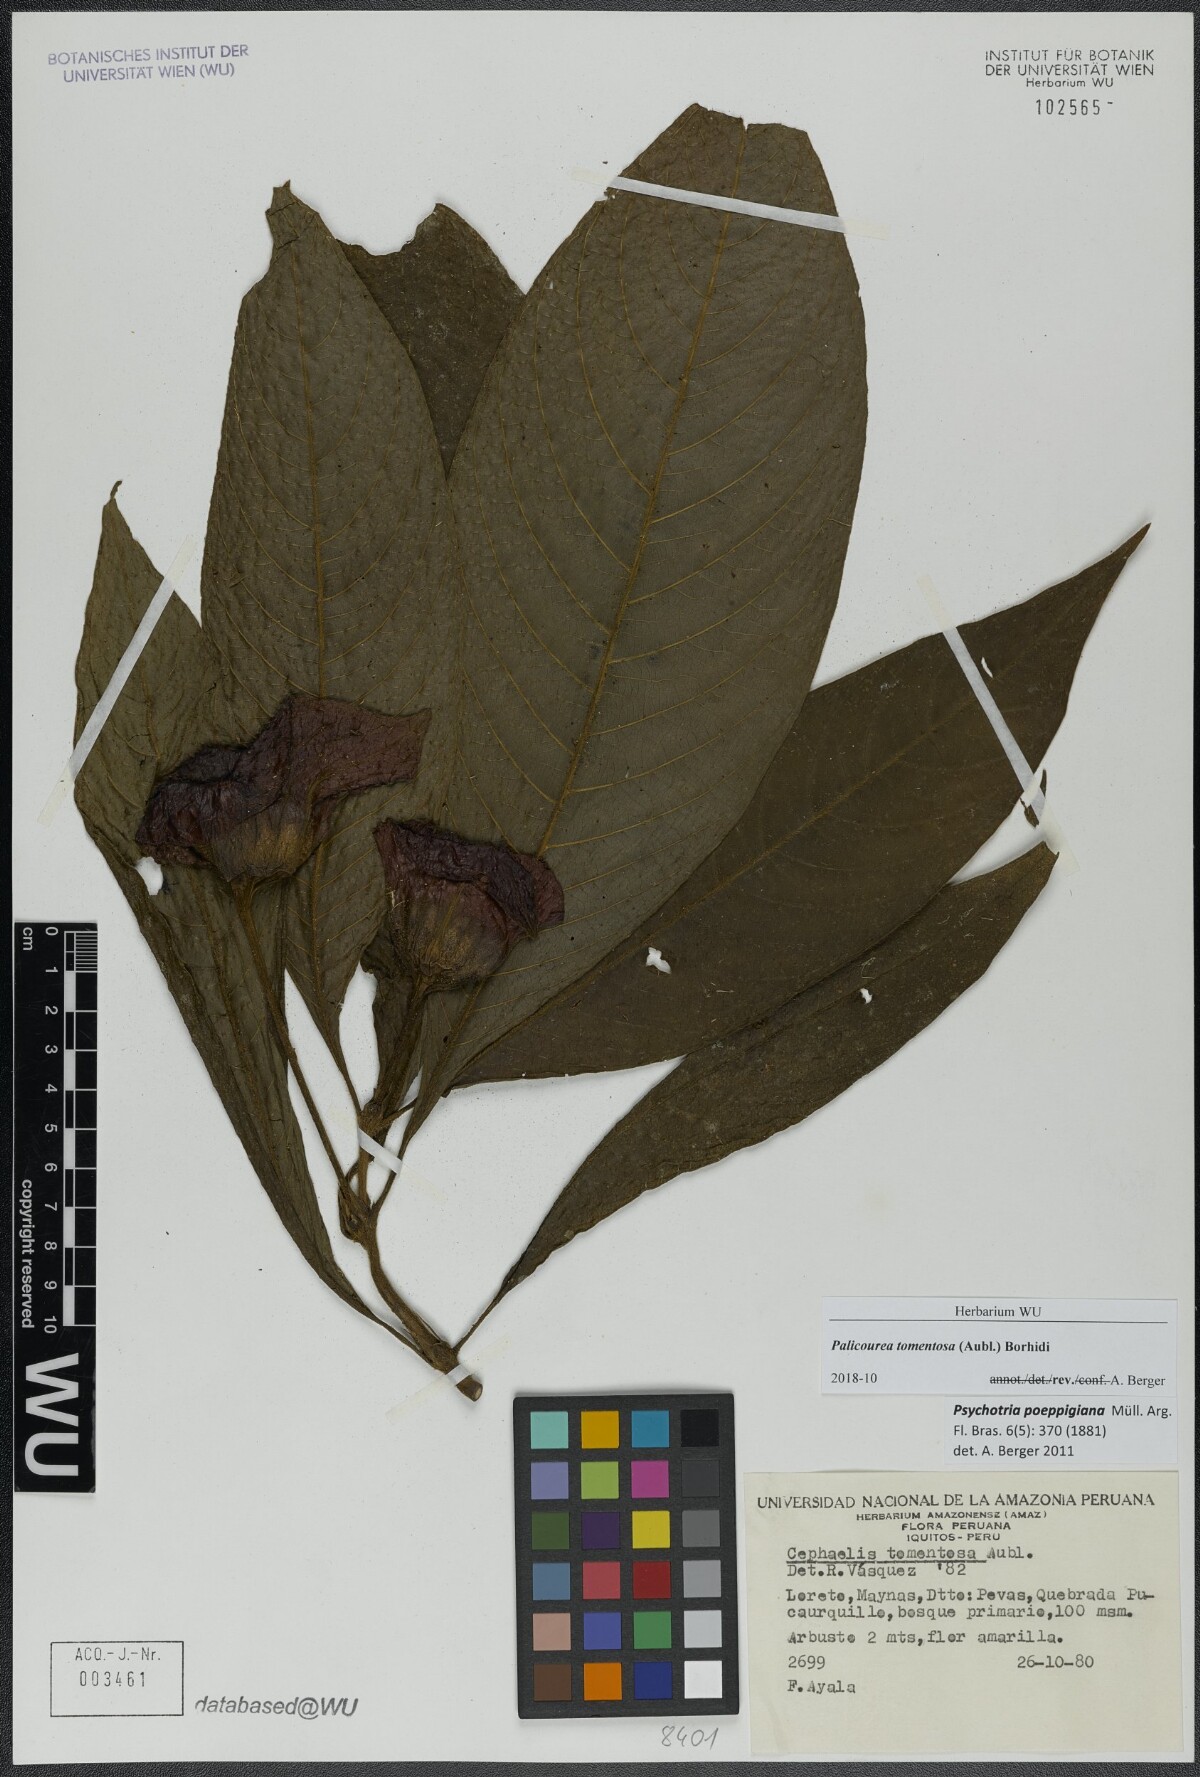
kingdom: Plantae
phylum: Tracheophyta
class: Magnoliopsida
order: Gentianales
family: Rubiaceae
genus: Palicourea
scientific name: Palicourea tomentosa
